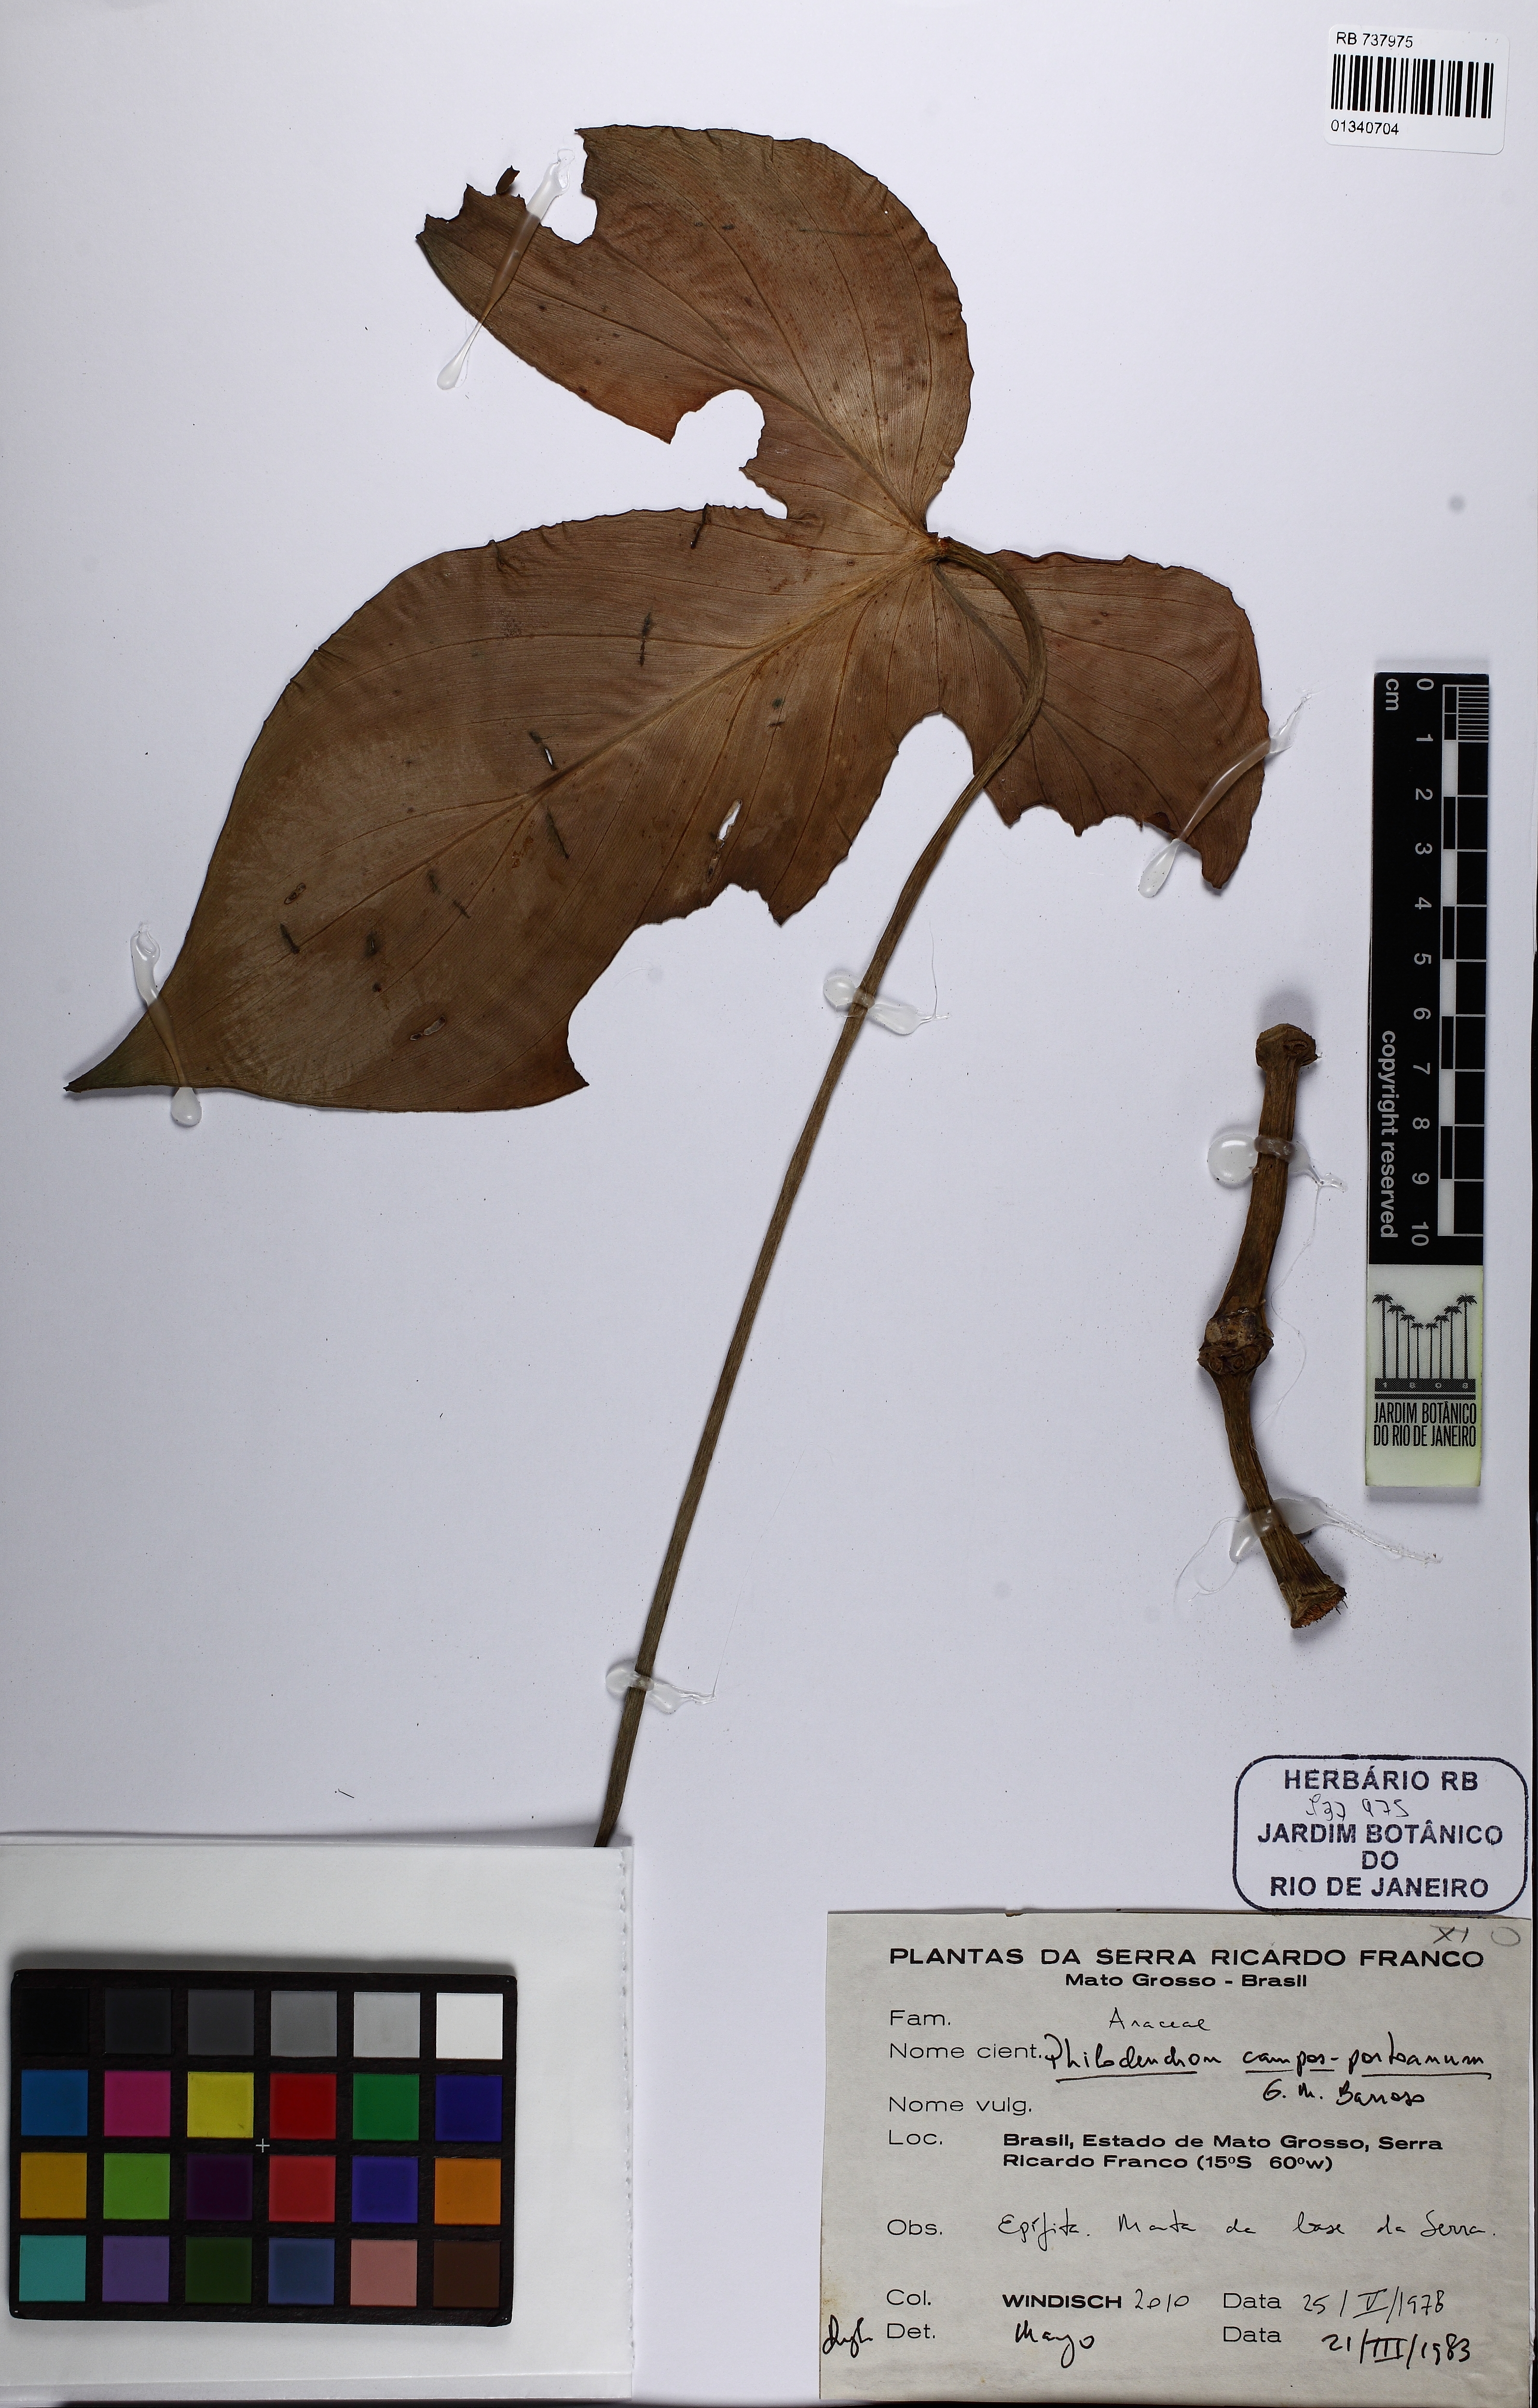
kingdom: Plantae
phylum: Tracheophyta
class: Liliopsida
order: Alismatales
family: Araceae
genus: Philodendron
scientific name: Philodendron camposportoanum
